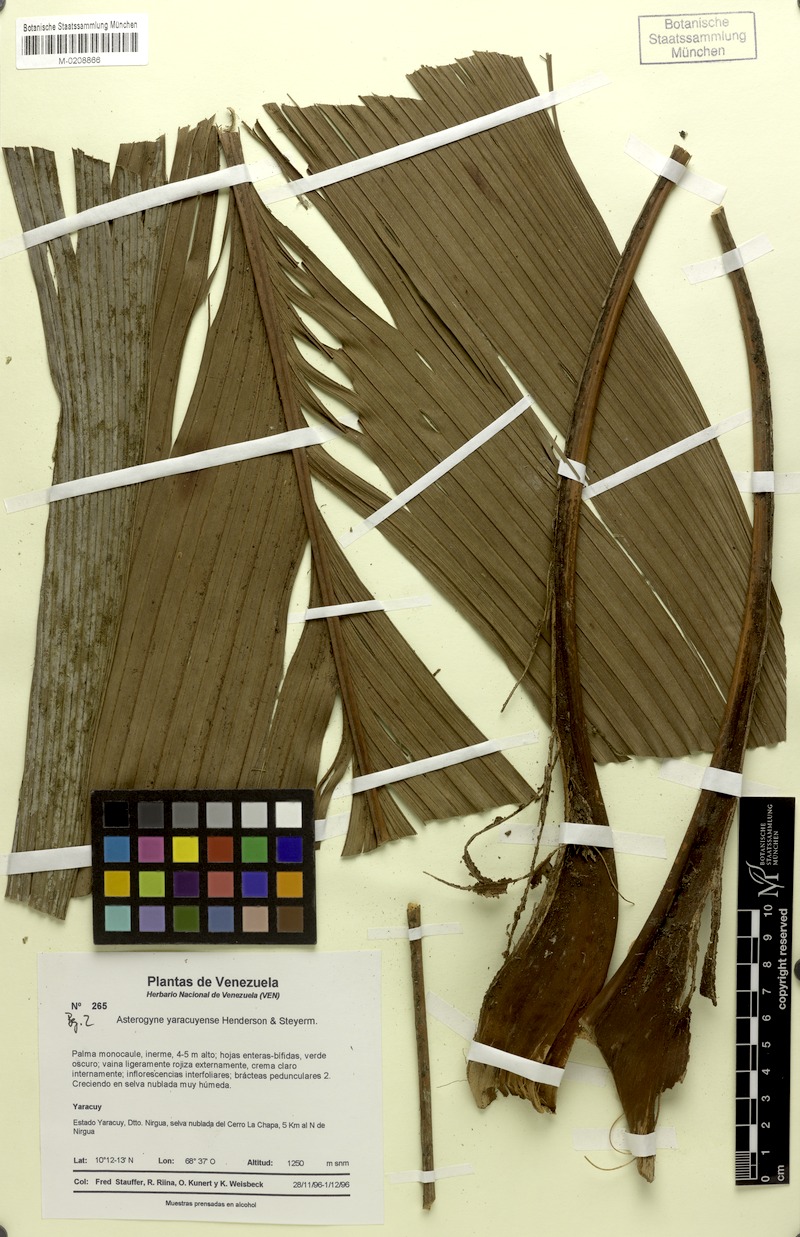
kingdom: Plantae
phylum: Tracheophyta
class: Liliopsida
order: Arecales
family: Arecaceae
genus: Asterogyne
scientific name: Asterogyne yaracuyense
